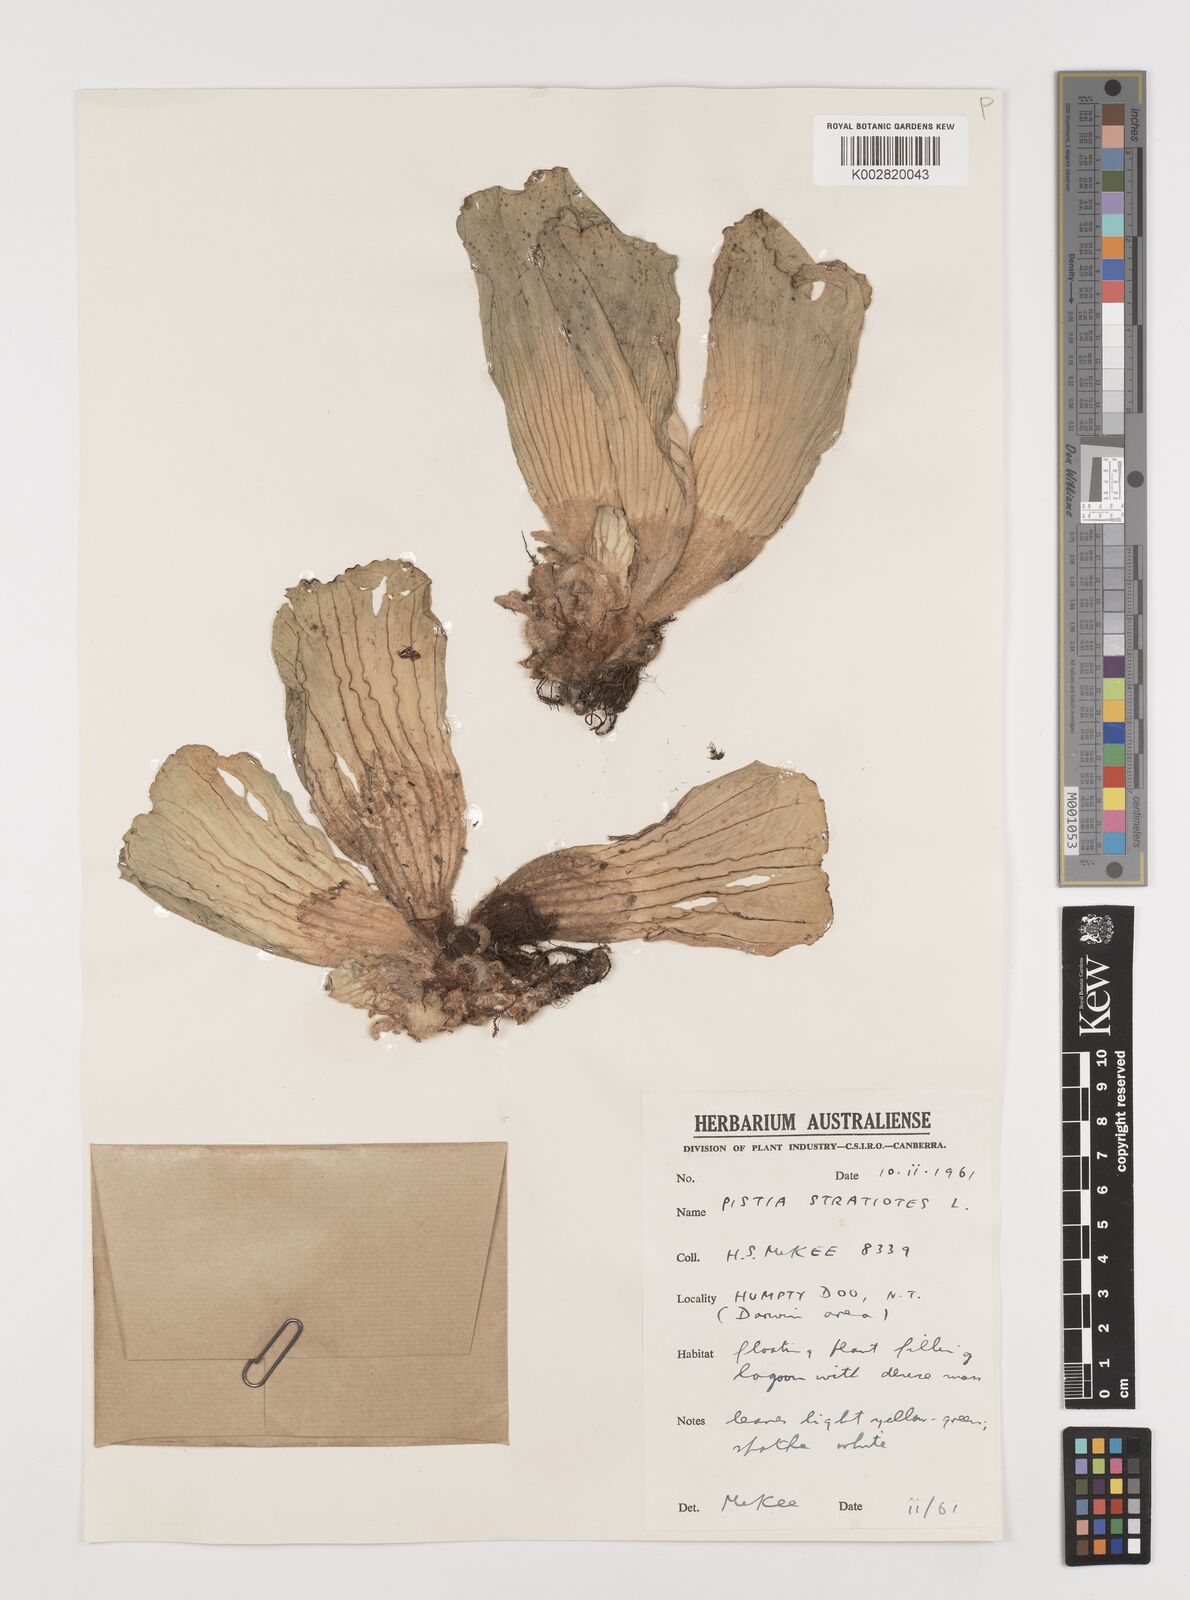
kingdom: Plantae
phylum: Tracheophyta
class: Liliopsida
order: Alismatales
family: Araceae
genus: Pistia
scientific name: Pistia stratiotes
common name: Water lettuce
